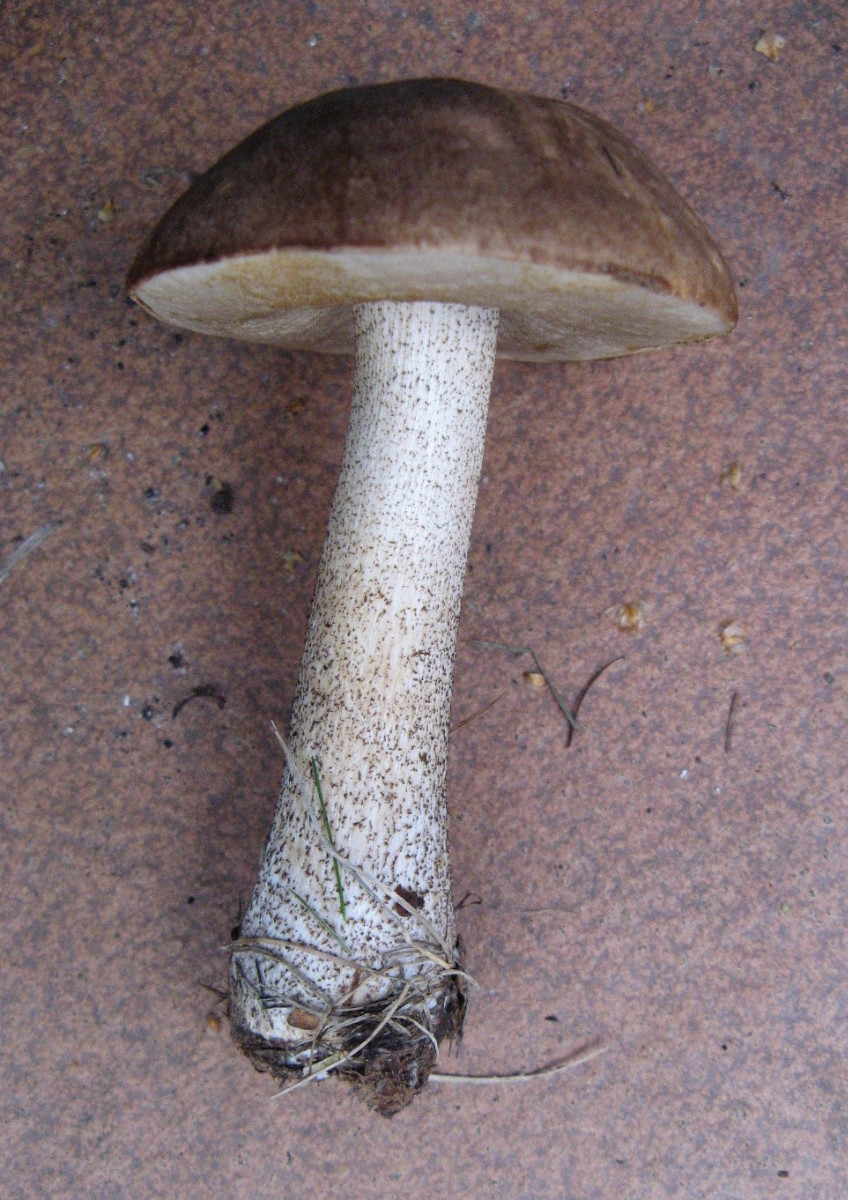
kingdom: Fungi
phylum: Basidiomycota
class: Agaricomycetes
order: Boletales
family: Boletaceae
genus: Leccinum
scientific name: Leccinum scabrum
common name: brun skælrørhat
